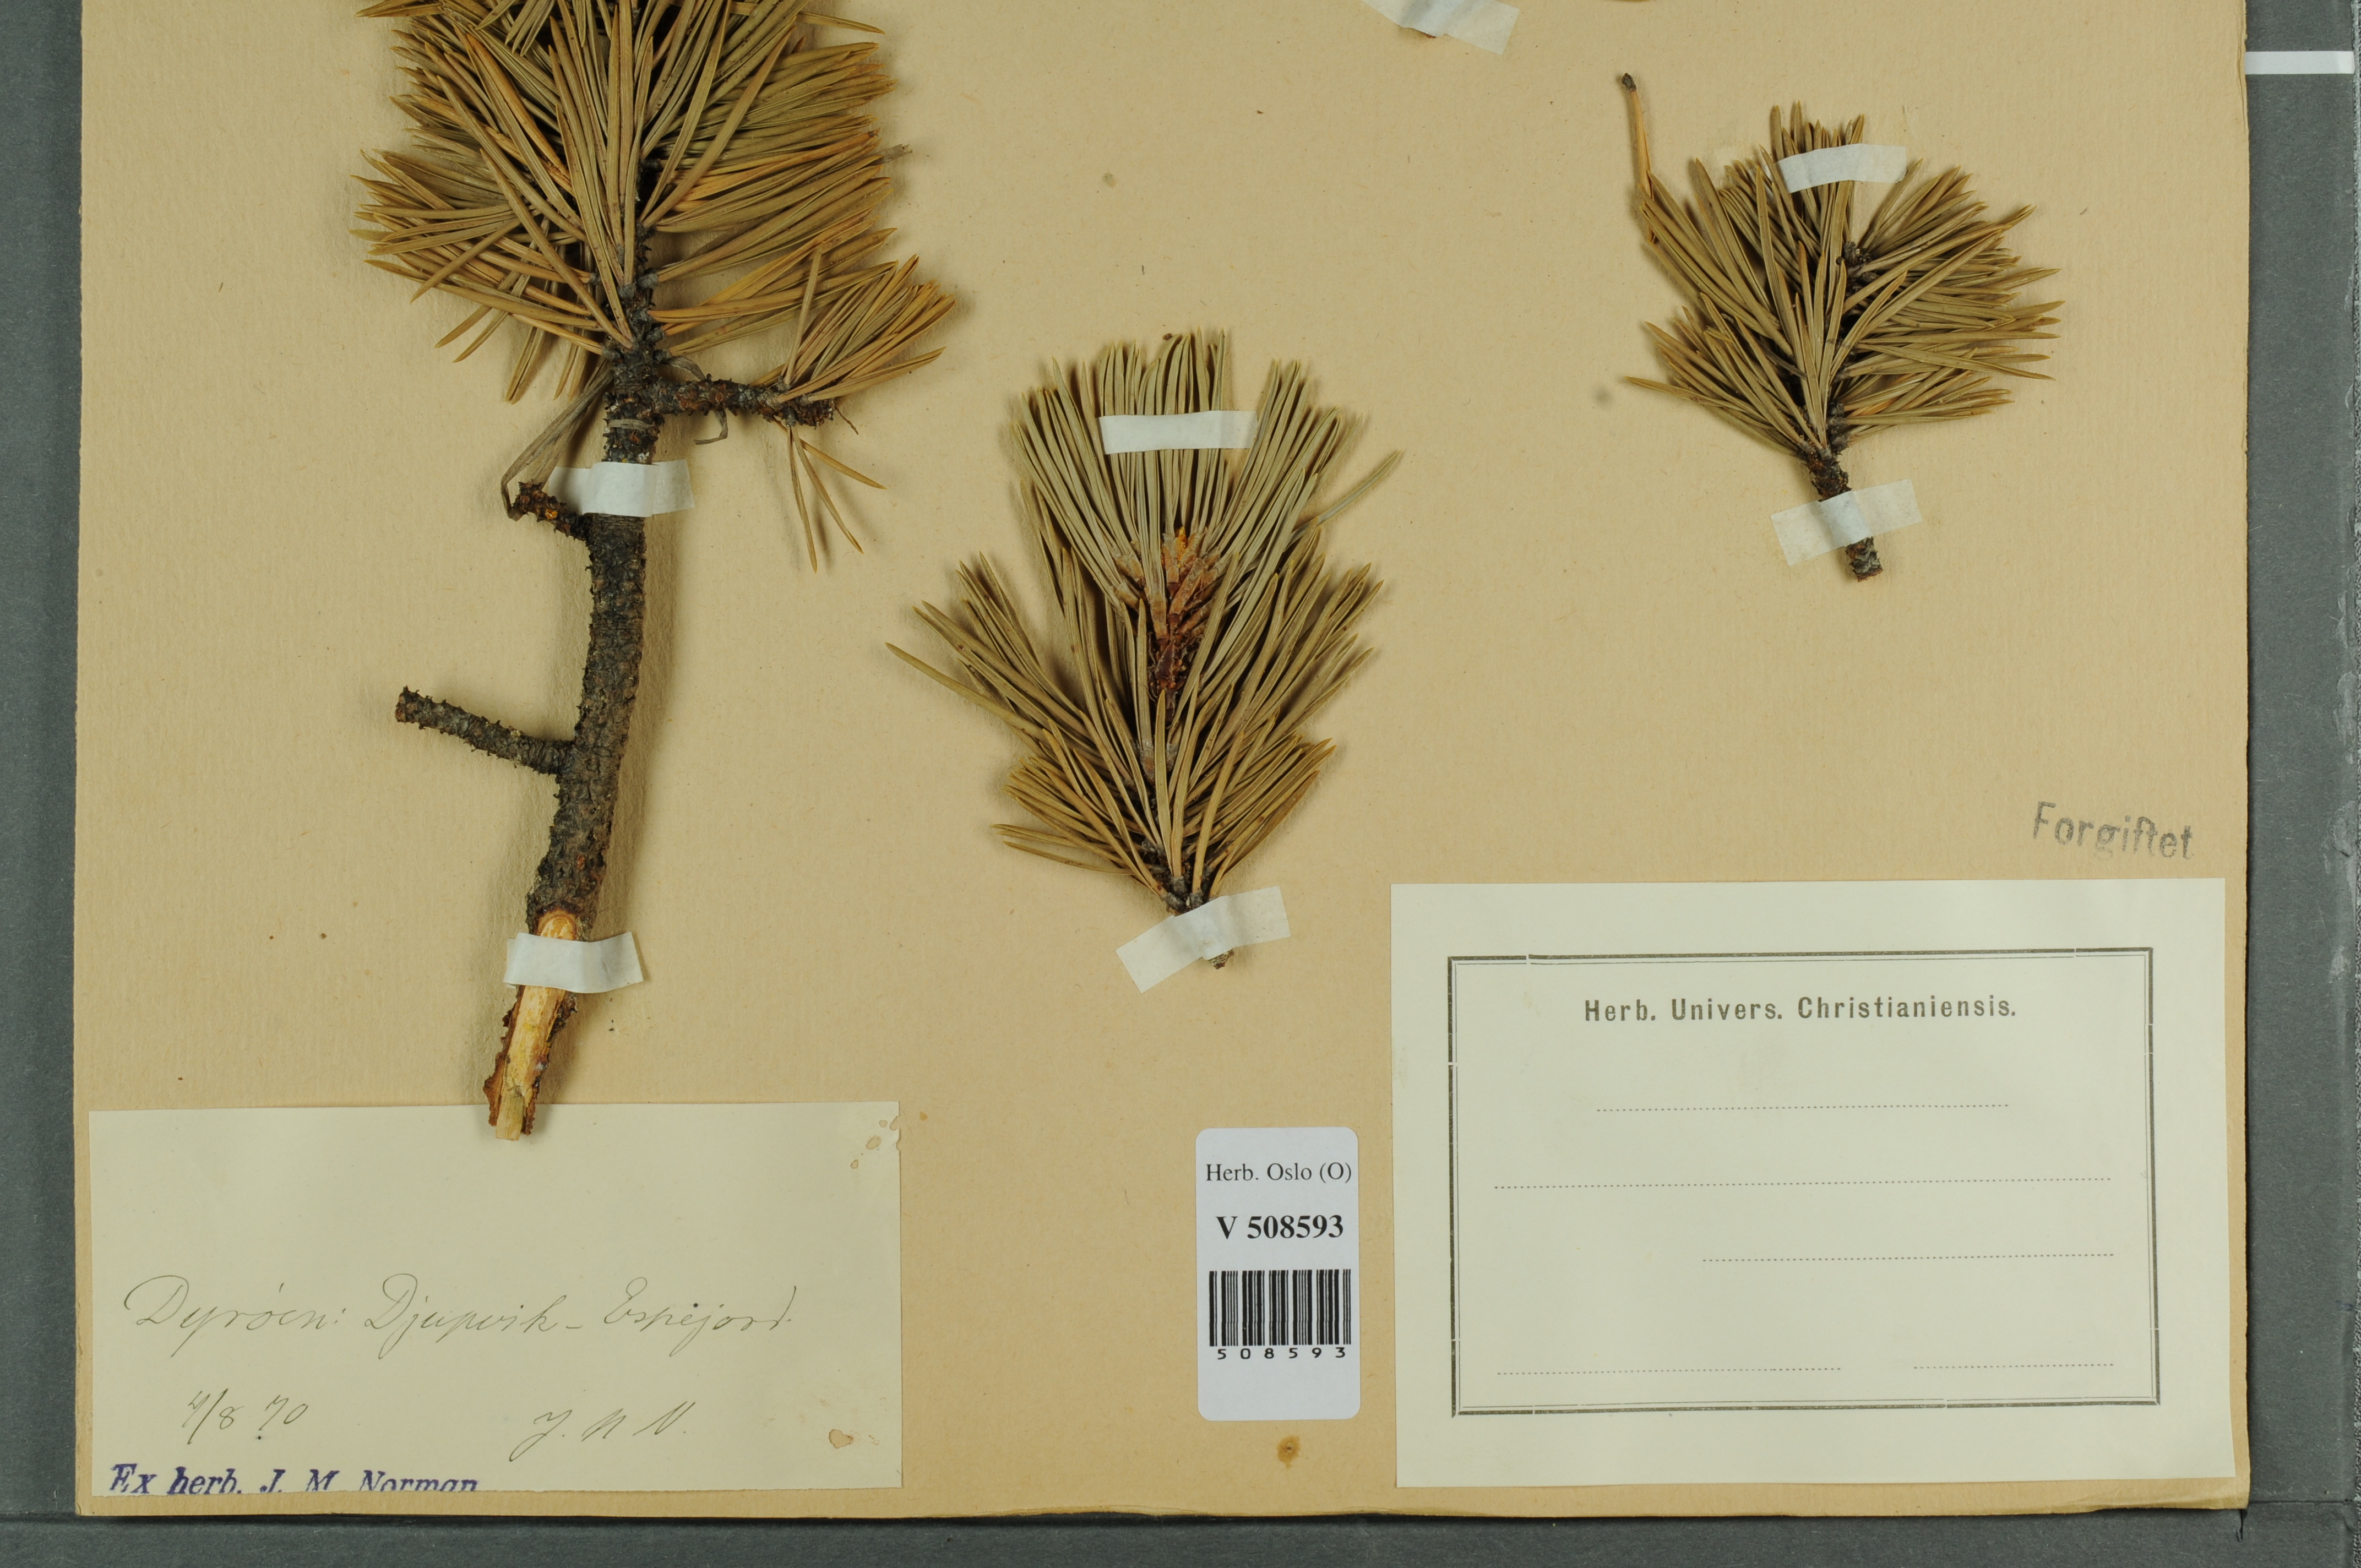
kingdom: Plantae
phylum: Tracheophyta
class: Pinopsida
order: Pinales
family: Pinaceae
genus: Pinus
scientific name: Pinus sylvestris
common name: Scots pine
